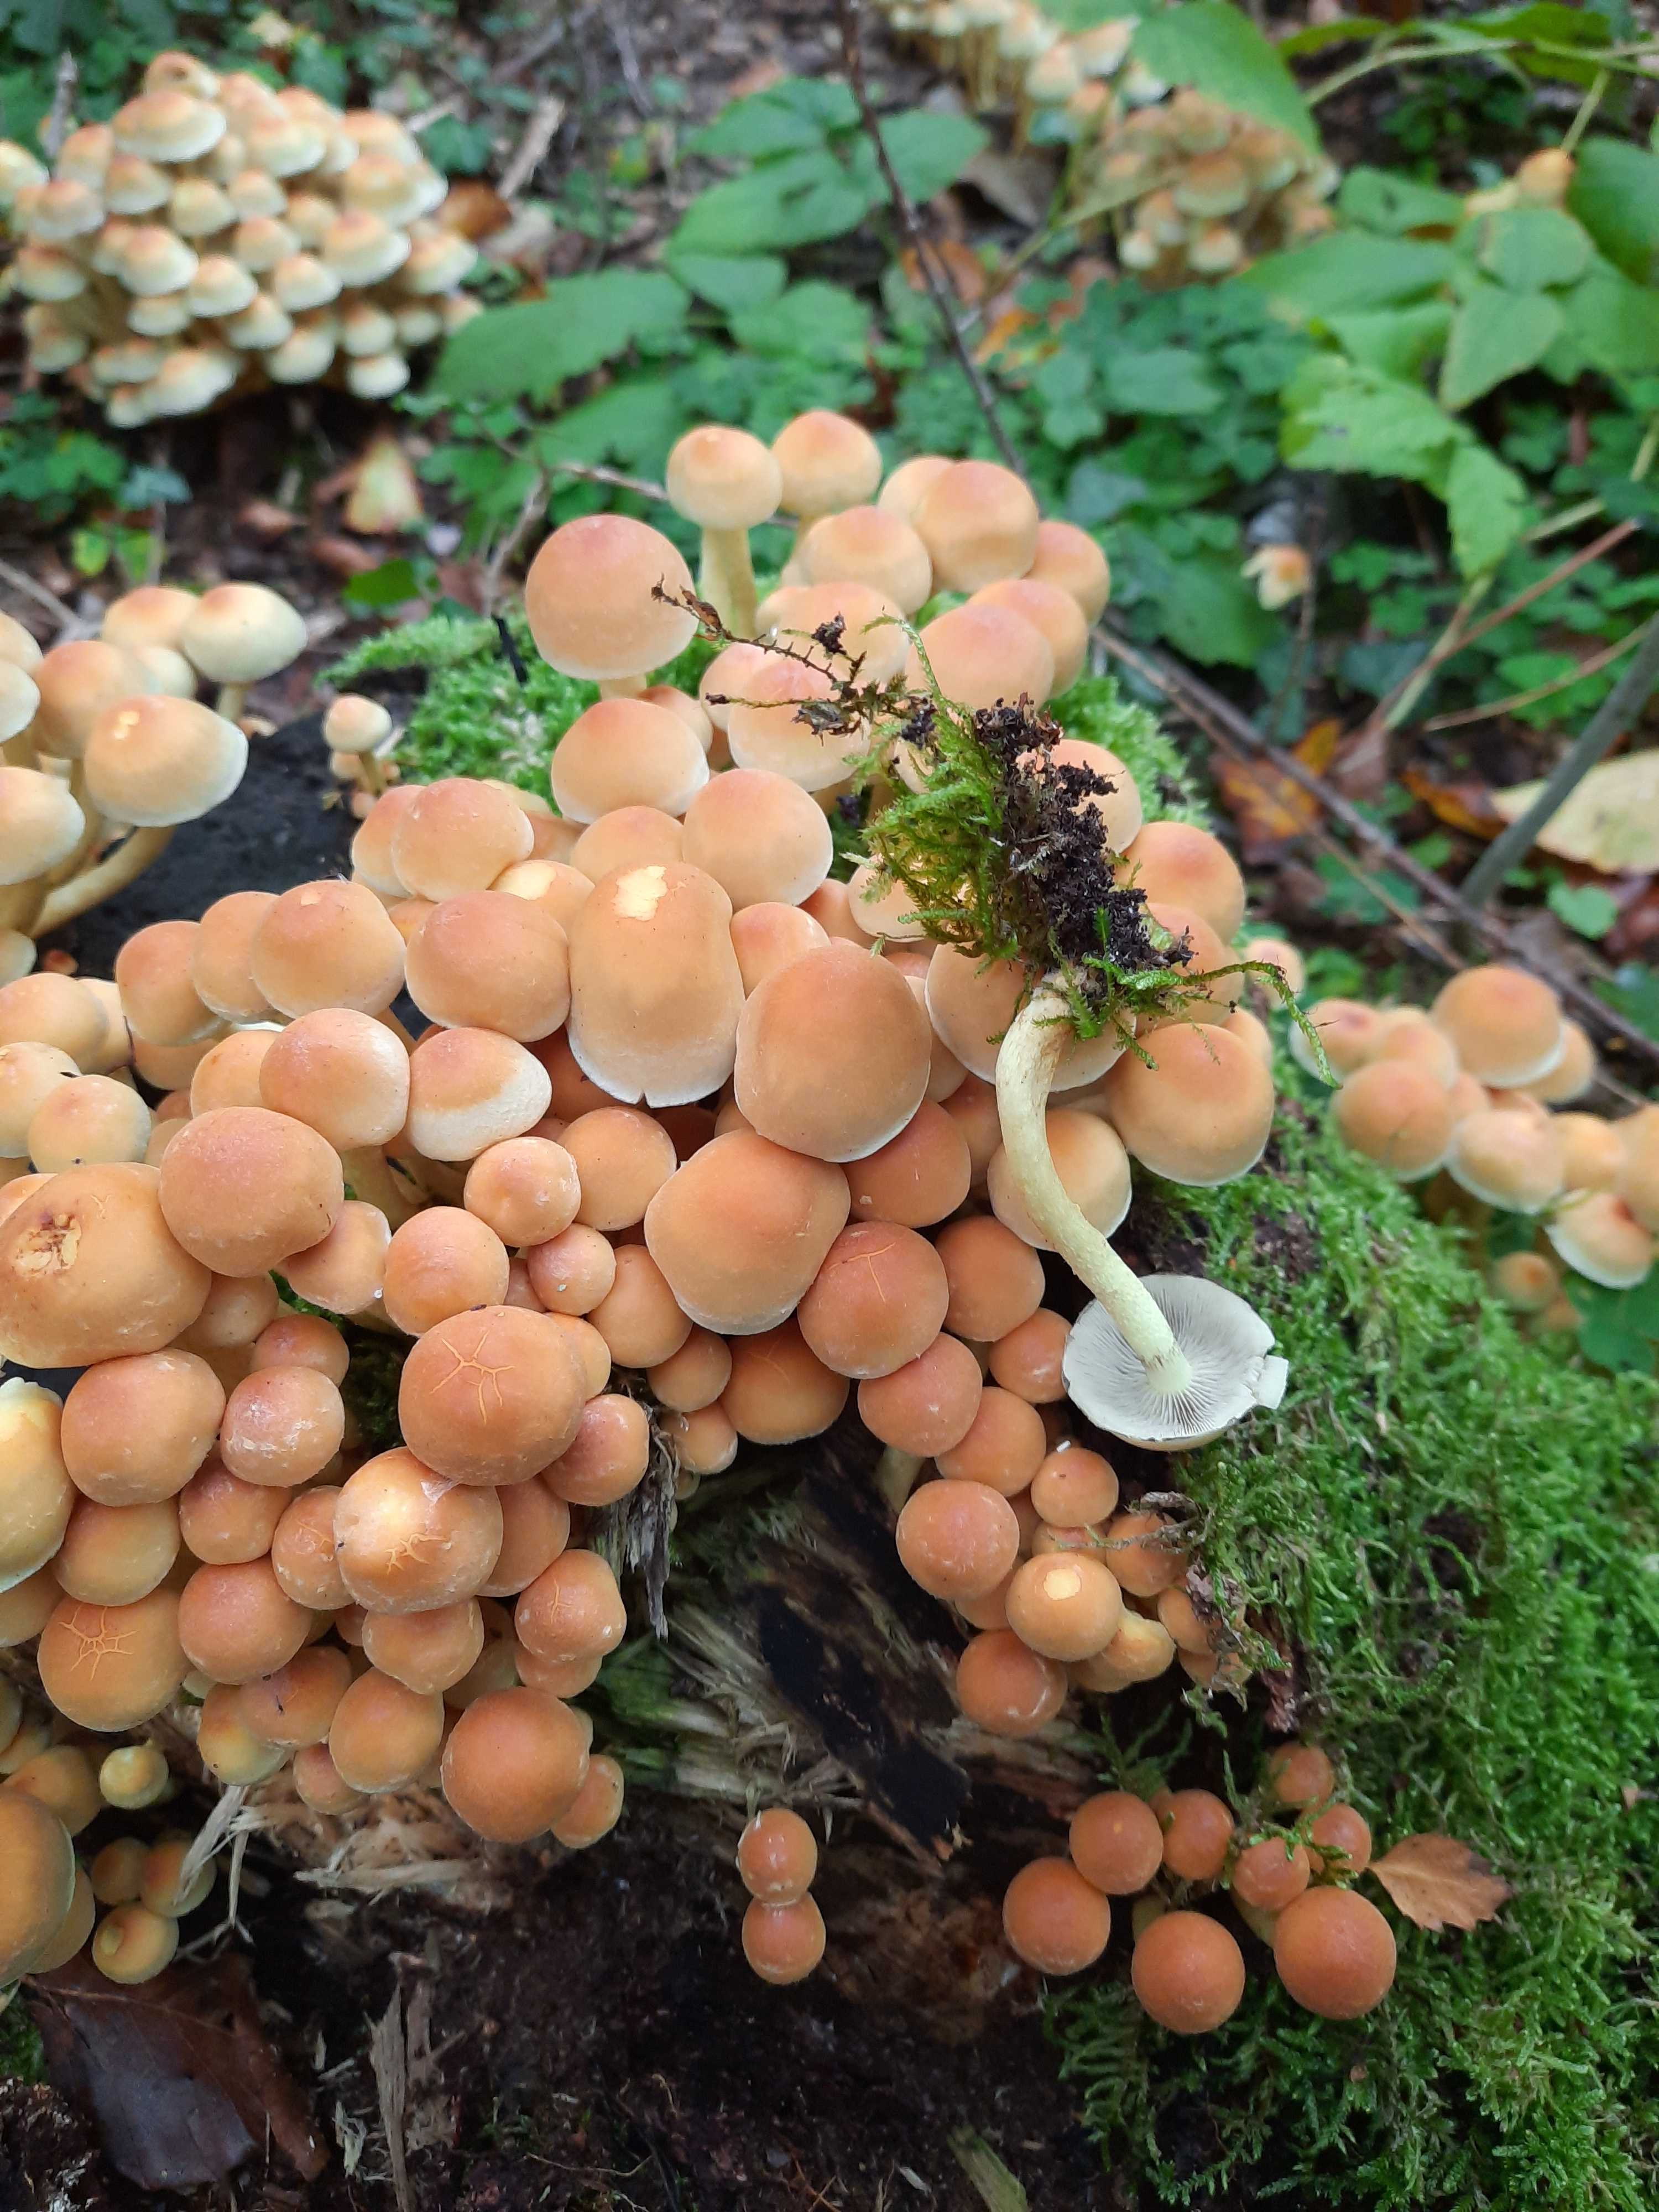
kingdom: Fungi
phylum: Basidiomycota
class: Agaricomycetes
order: Agaricales
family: Strophariaceae
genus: Hypholoma
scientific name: Hypholoma fasciculare
